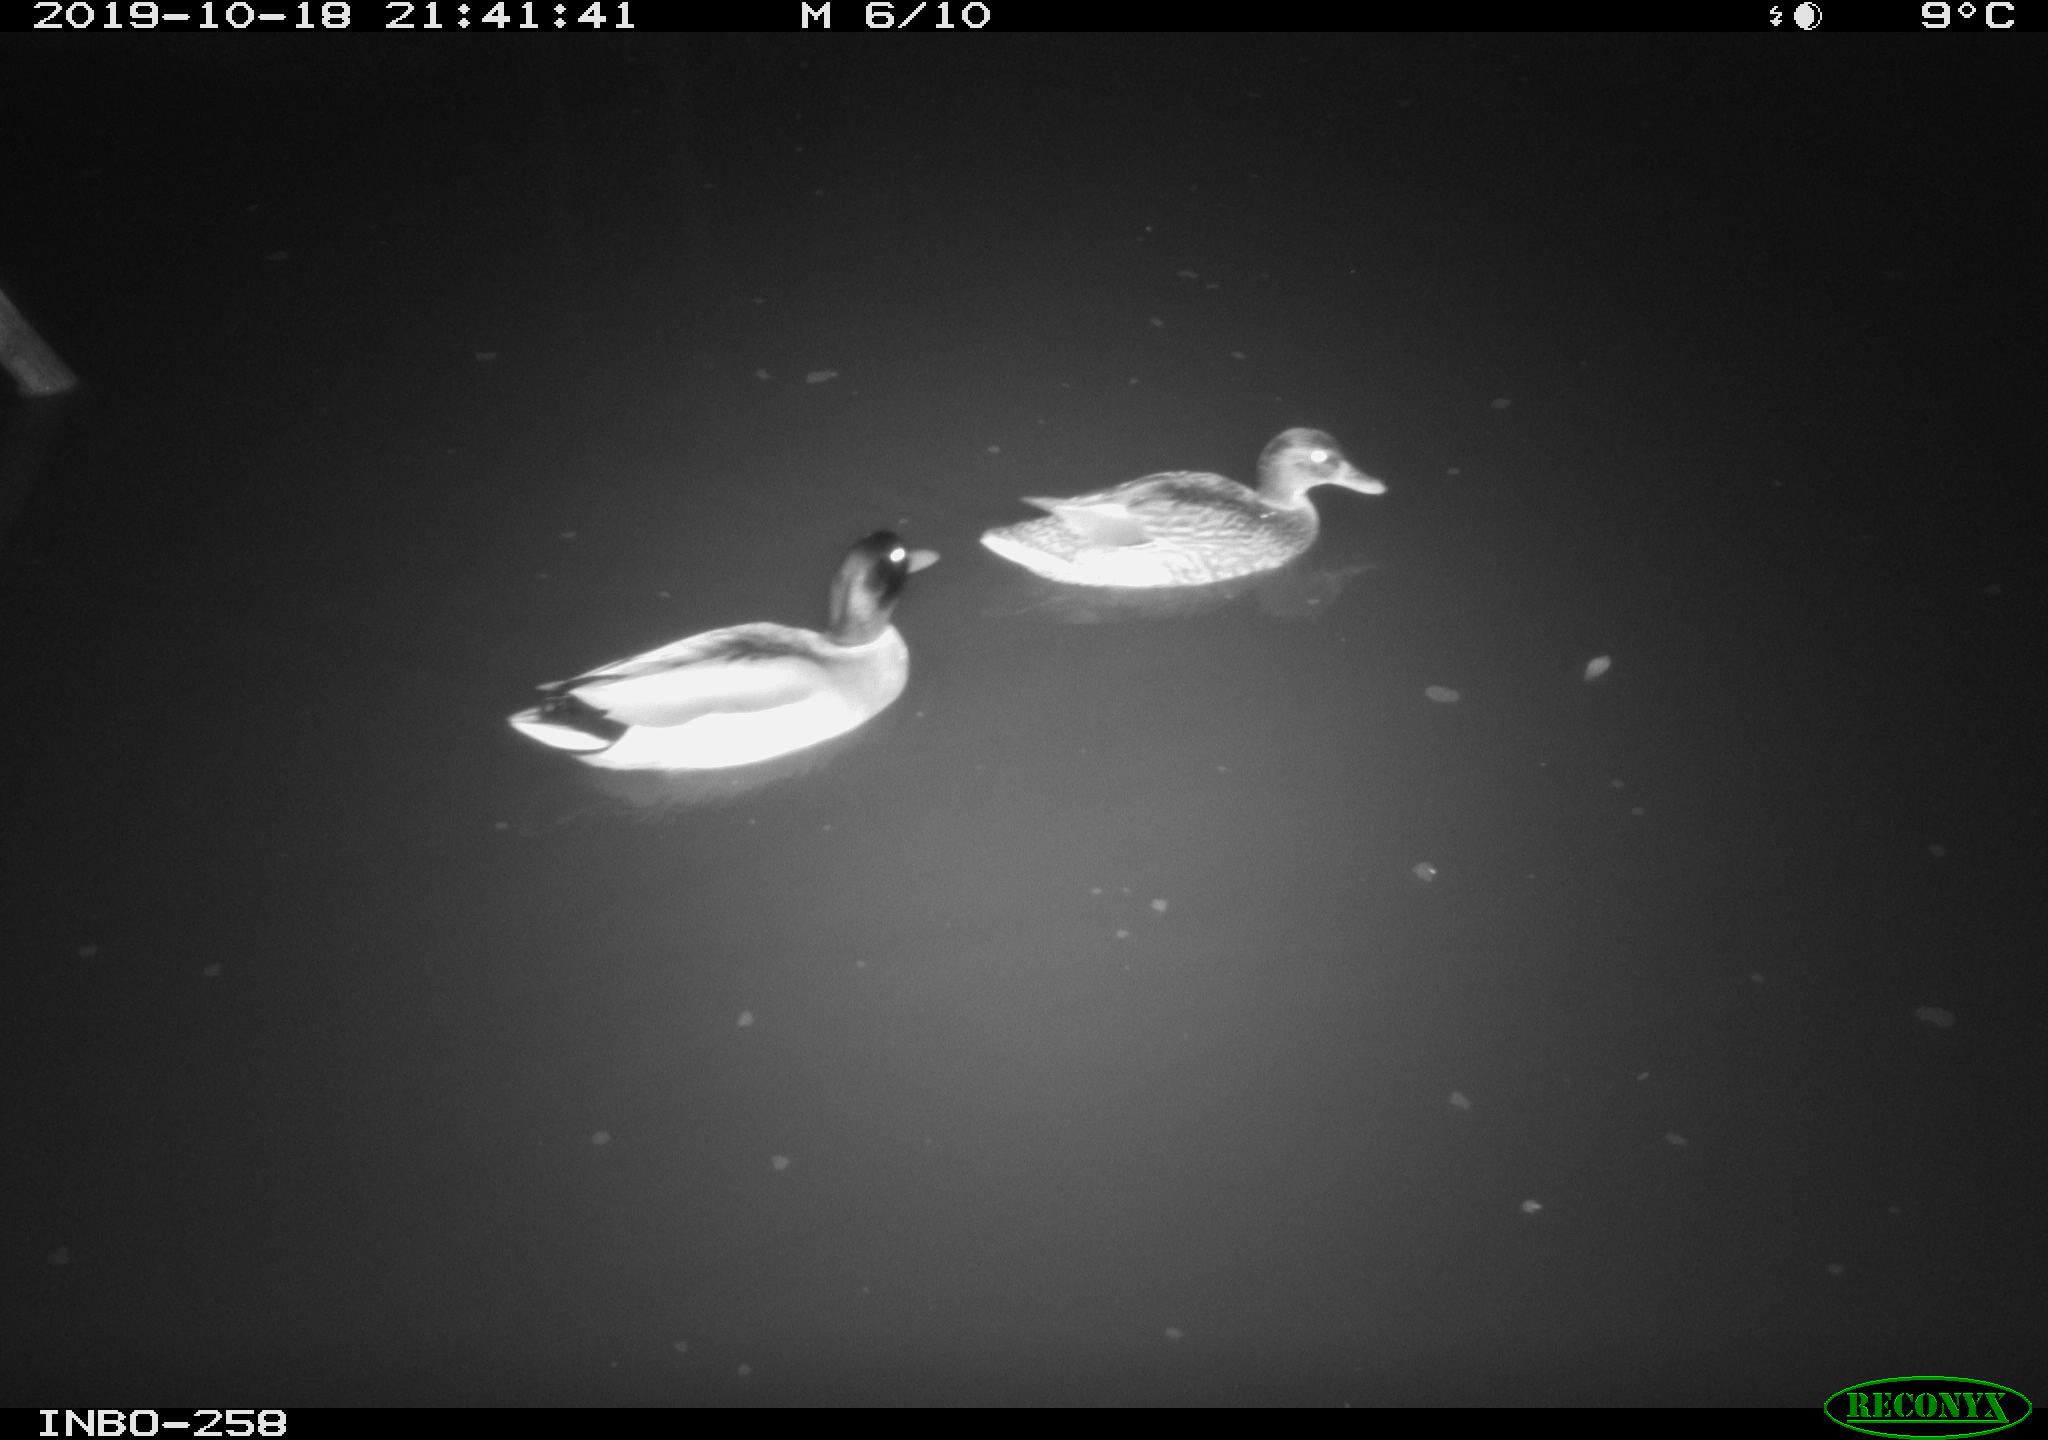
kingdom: Animalia
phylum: Chordata
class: Aves
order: Anseriformes
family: Anatidae
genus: Anas
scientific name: Anas platyrhynchos
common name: Mallard
